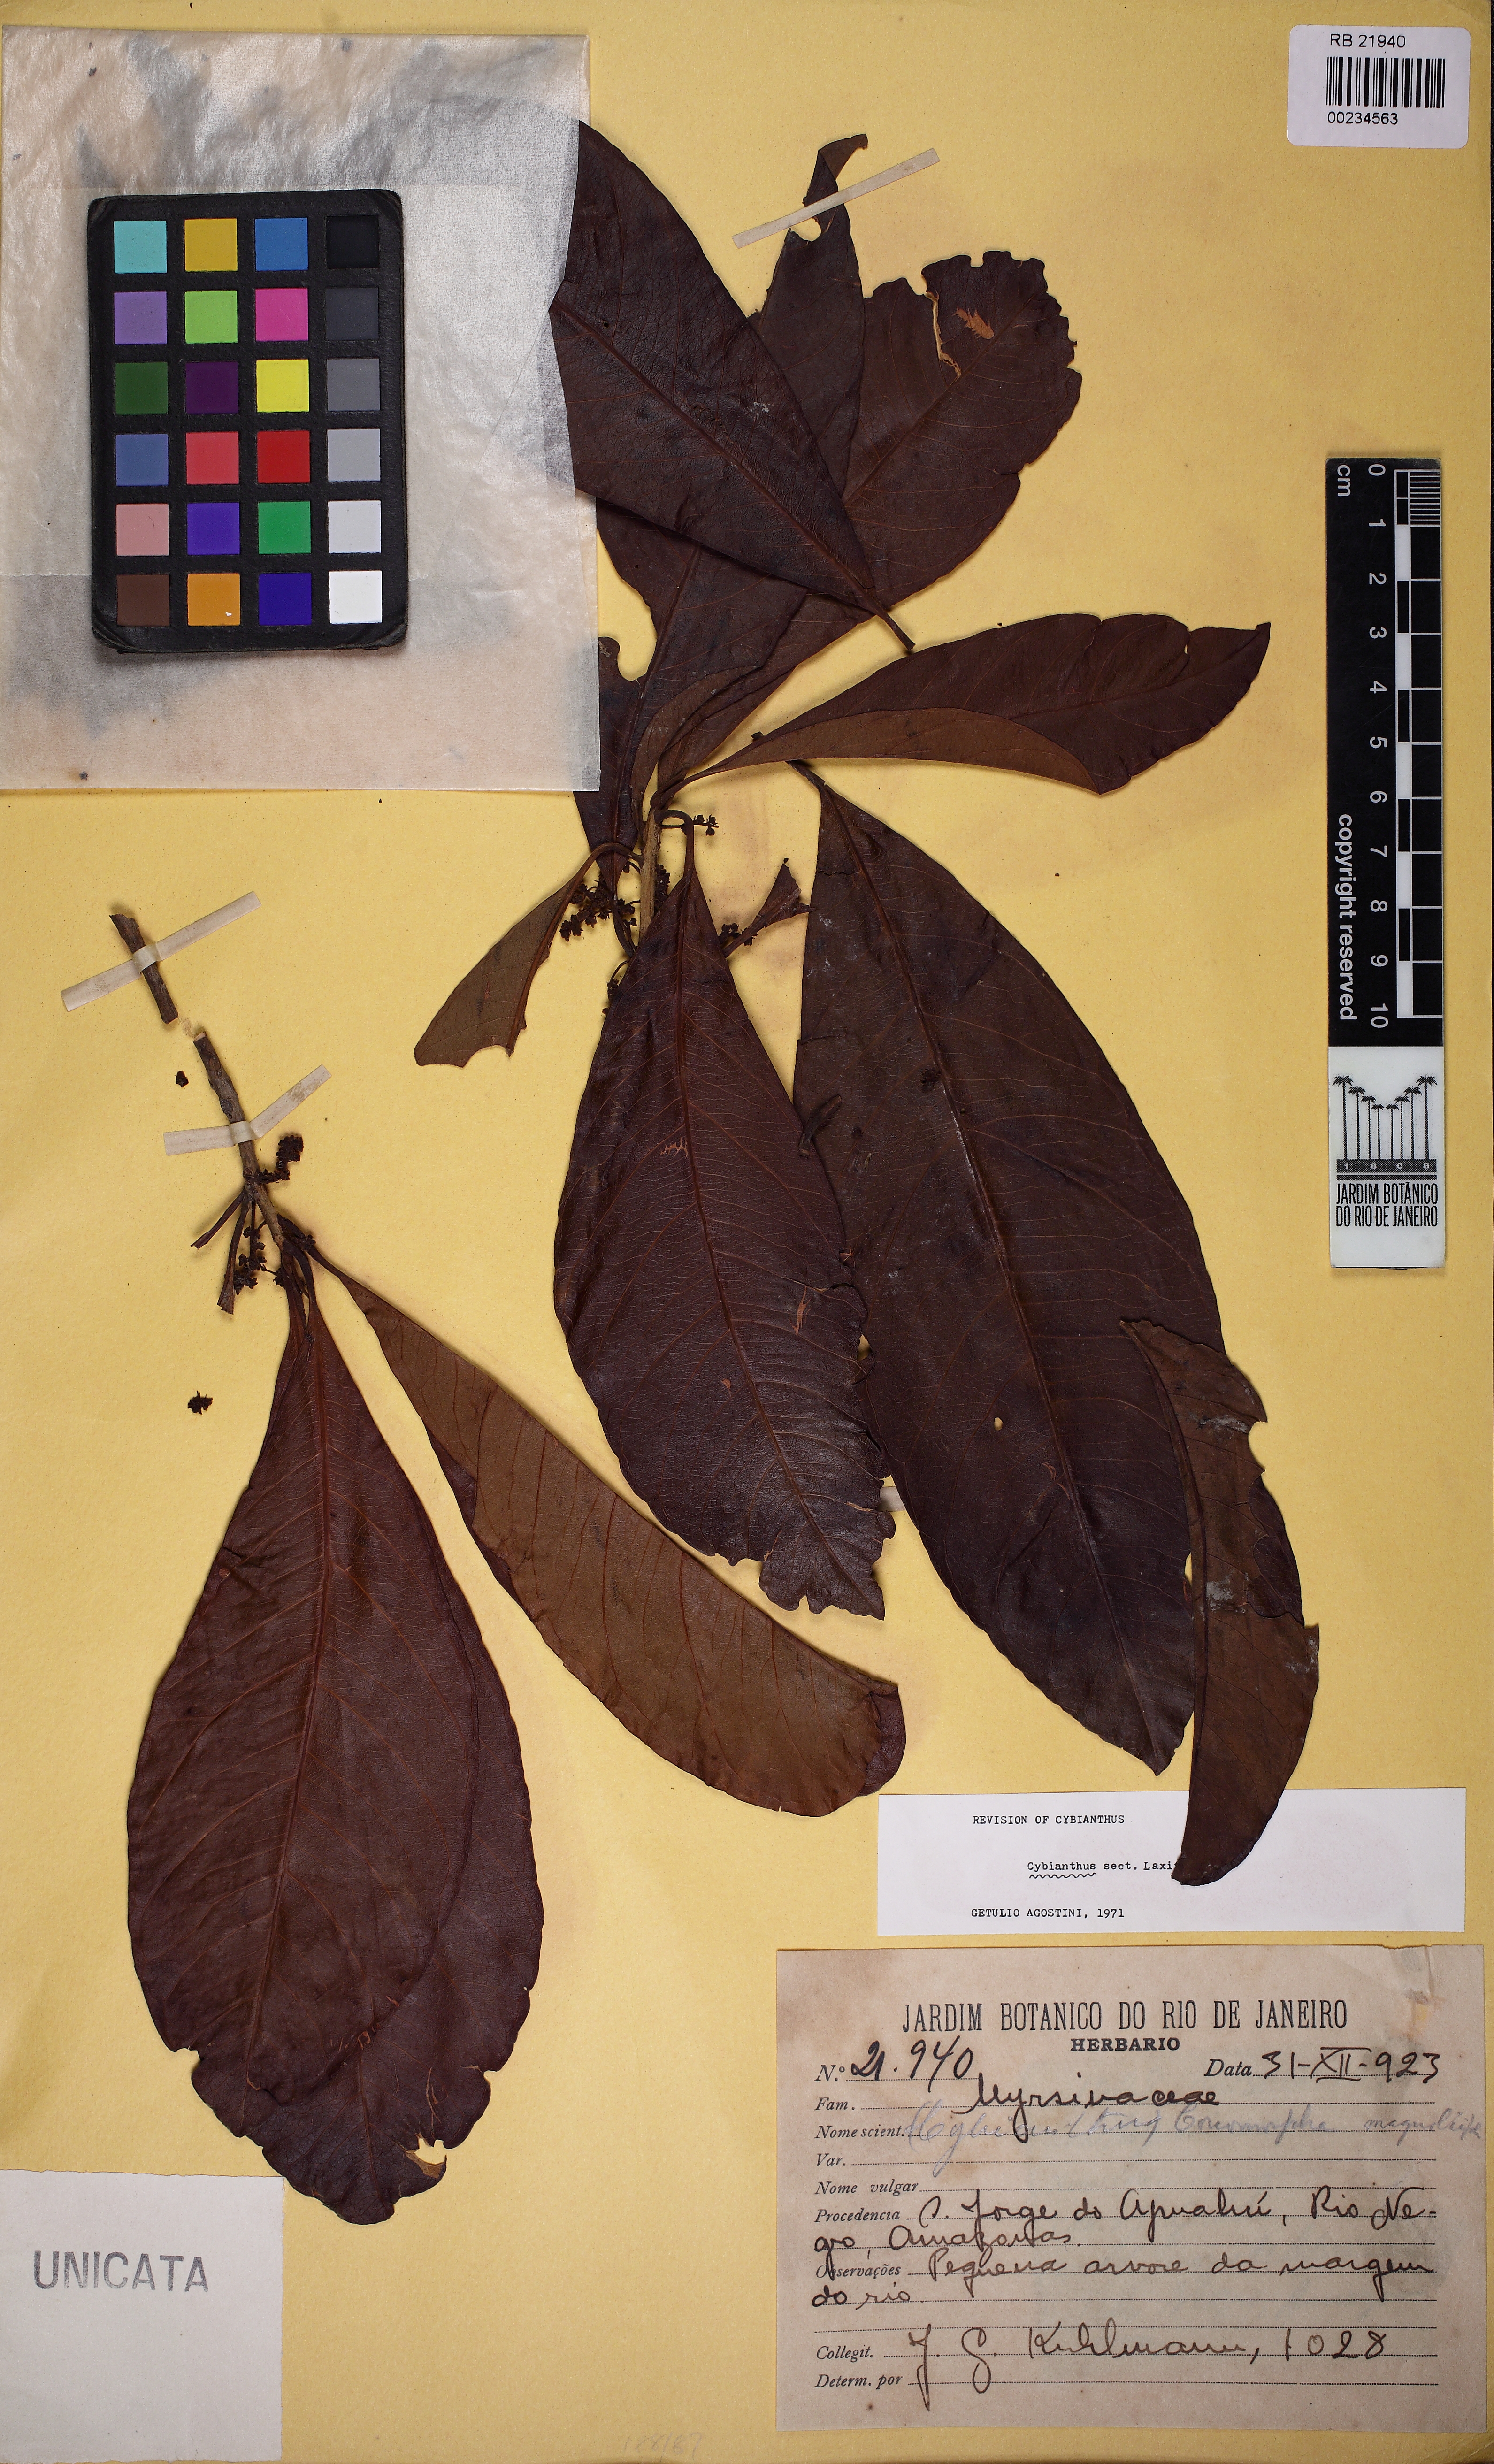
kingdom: Plantae
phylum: Tracheophyta
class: Magnoliopsida
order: Ericales
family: Primulaceae
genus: Cybianthus
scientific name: Cybianthus
